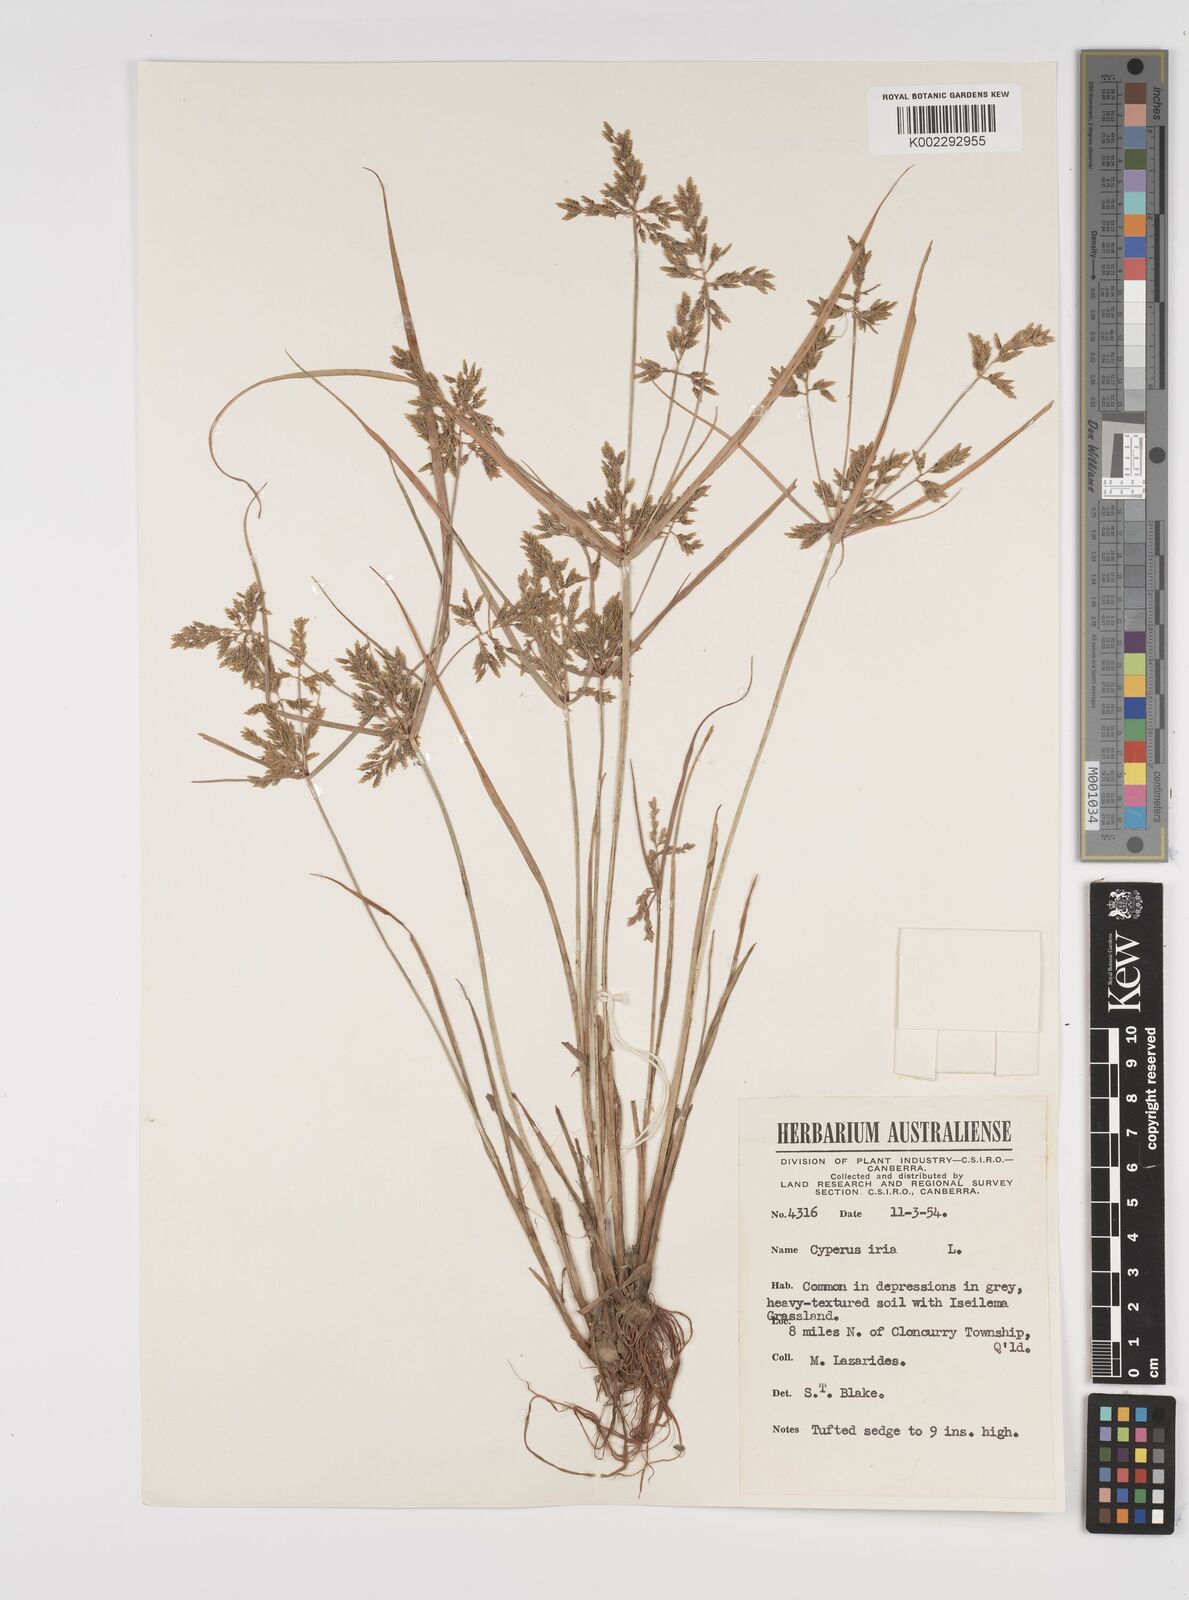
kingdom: Plantae
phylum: Tracheophyta
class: Liliopsida
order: Poales
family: Cyperaceae
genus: Cyperus
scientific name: Cyperus iria
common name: Ricefield flatsedge
